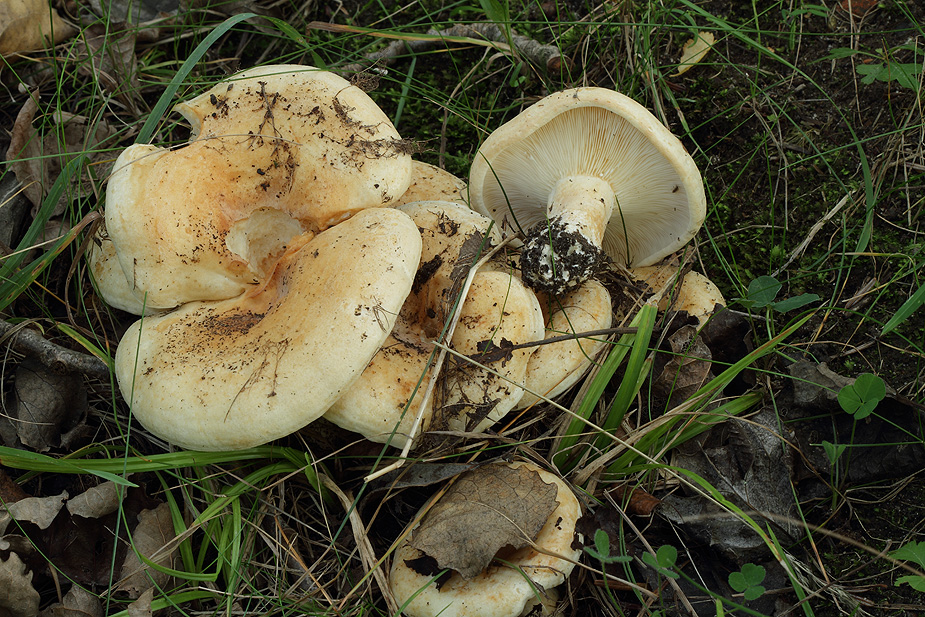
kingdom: Fungi
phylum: Basidiomycota
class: Agaricomycetes
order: Russulales
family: Russulaceae
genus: Lactarius
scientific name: Lactarius evosmus
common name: bæltet mælkehat
